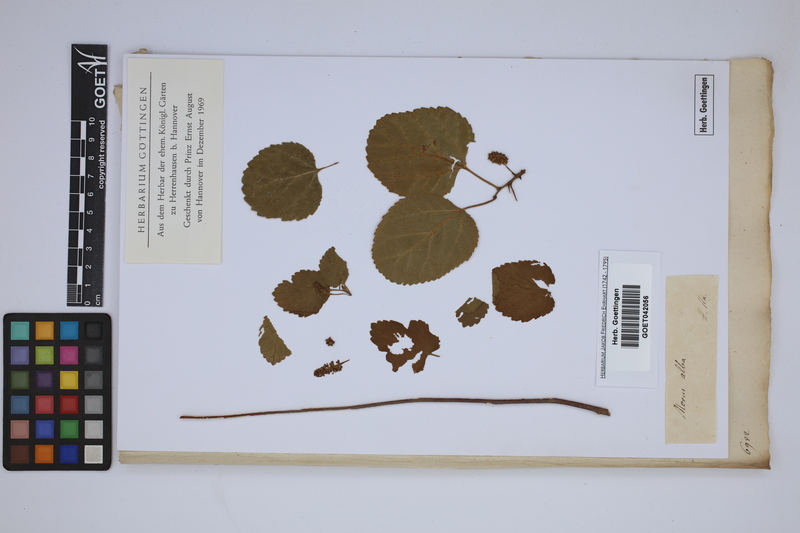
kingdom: Plantae
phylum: Tracheophyta
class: Magnoliopsida
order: Rosales
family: Moraceae
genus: Morus
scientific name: Morus alba
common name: White mulberry
